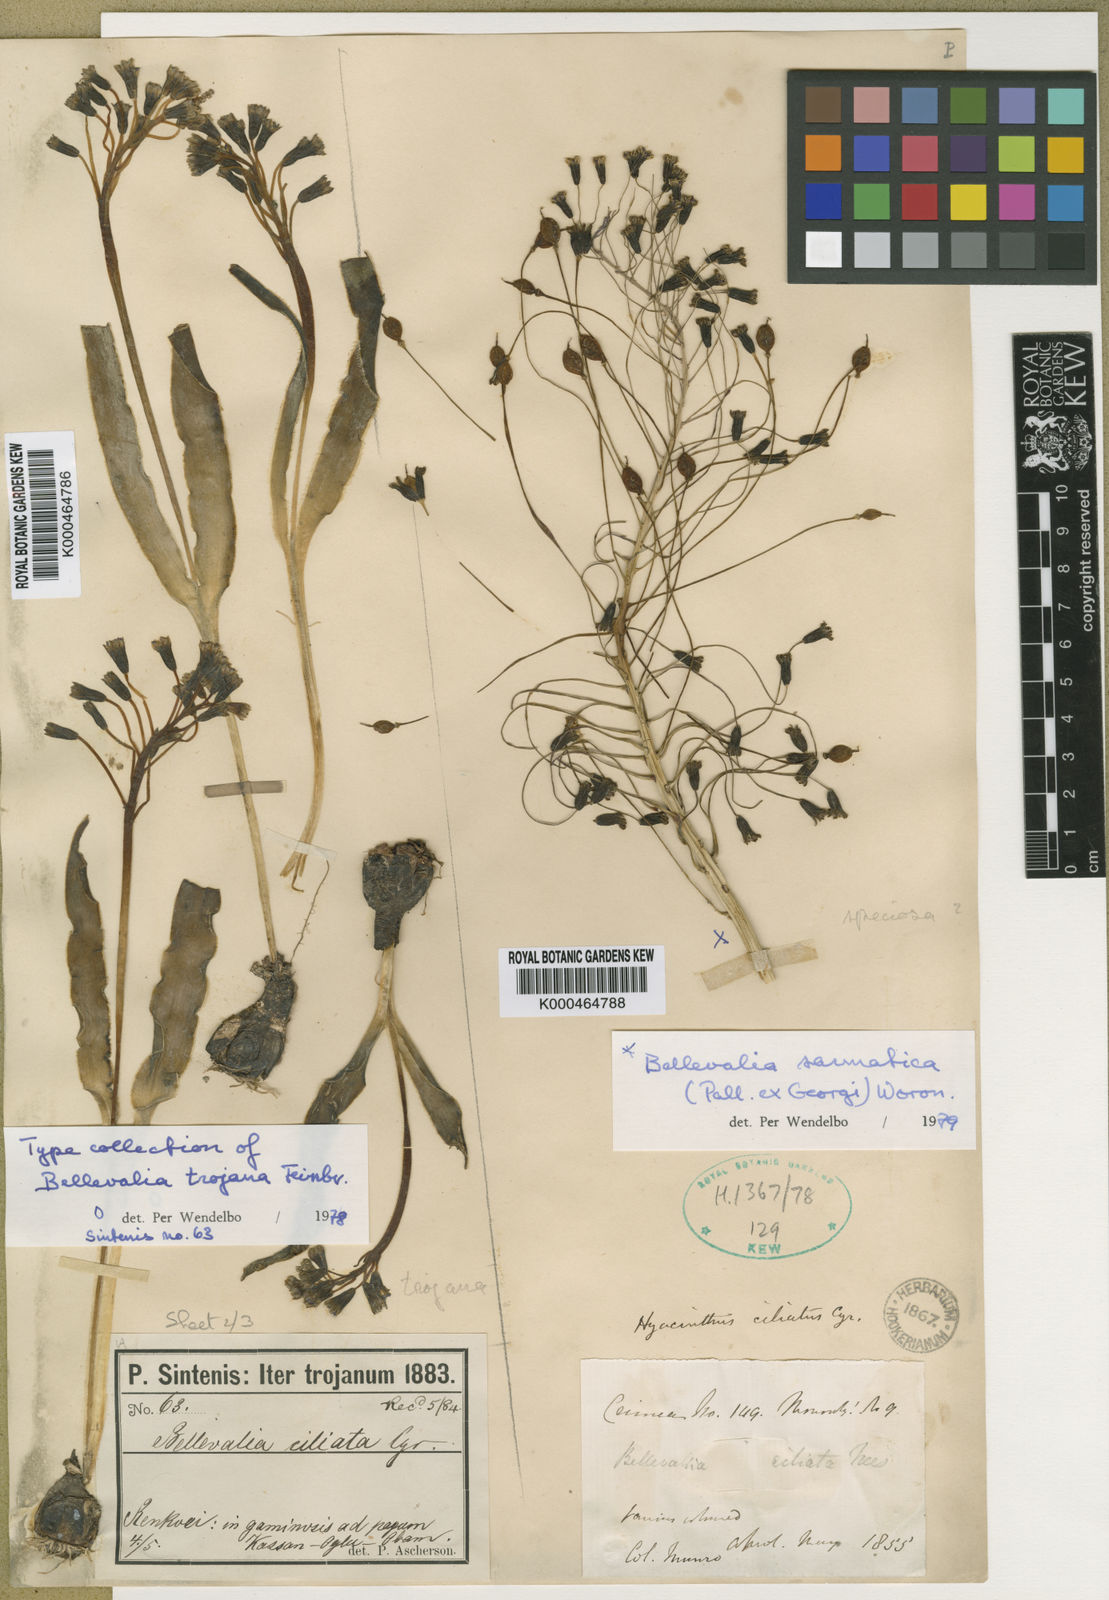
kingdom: Plantae
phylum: Tracheophyta
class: Liliopsida
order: Asparagales
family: Asparagaceae
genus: Bellevalia
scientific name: Bellevalia speciosa
